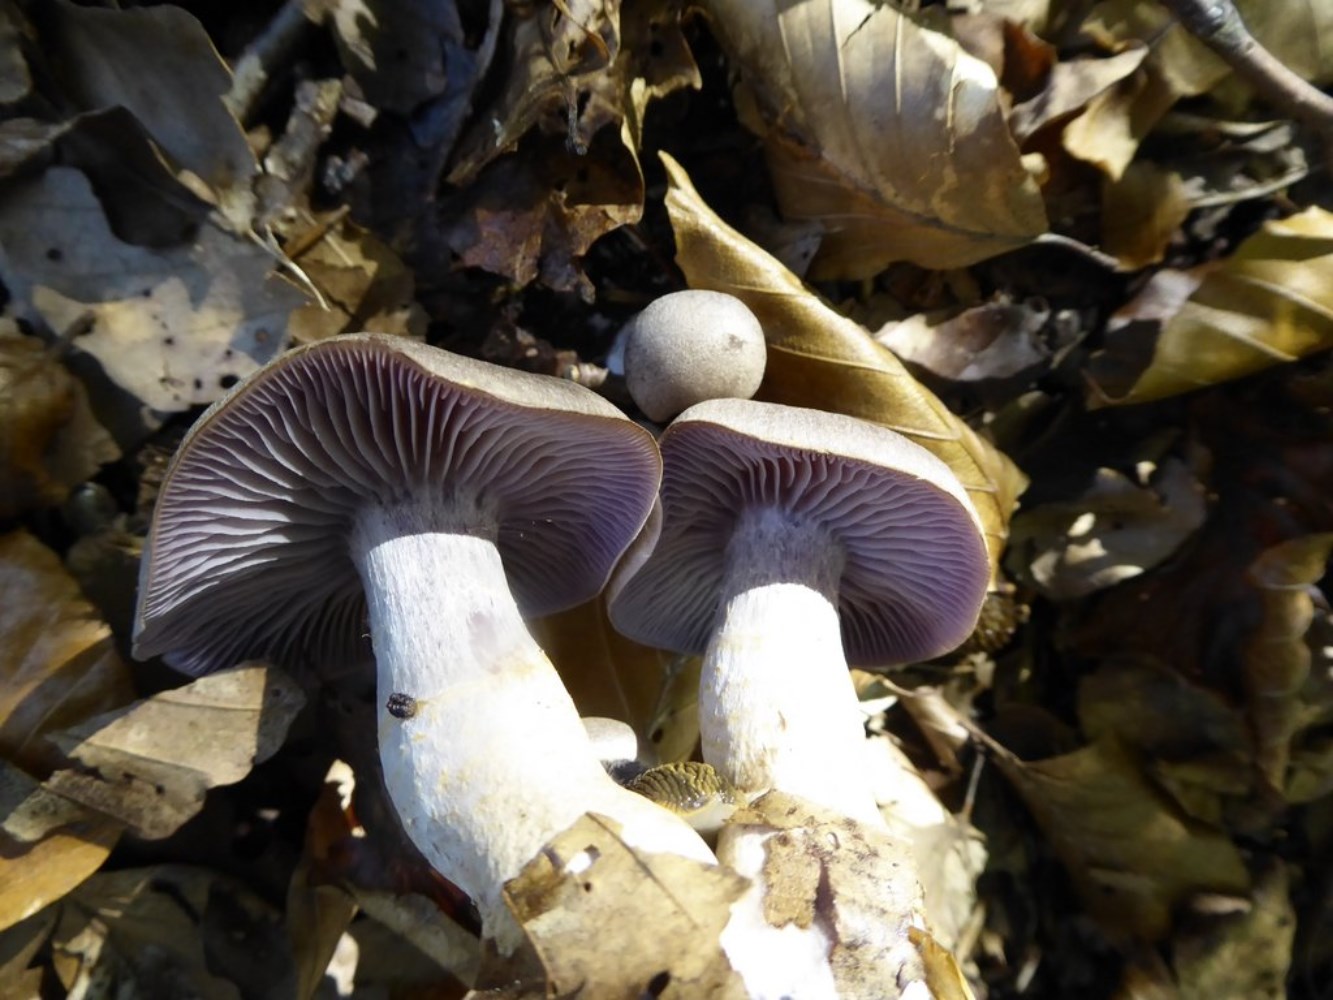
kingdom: Fungi
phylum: Basidiomycota
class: Agaricomycetes
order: Agaricales
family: Cortinariaceae
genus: Cortinarius
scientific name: Cortinarius
